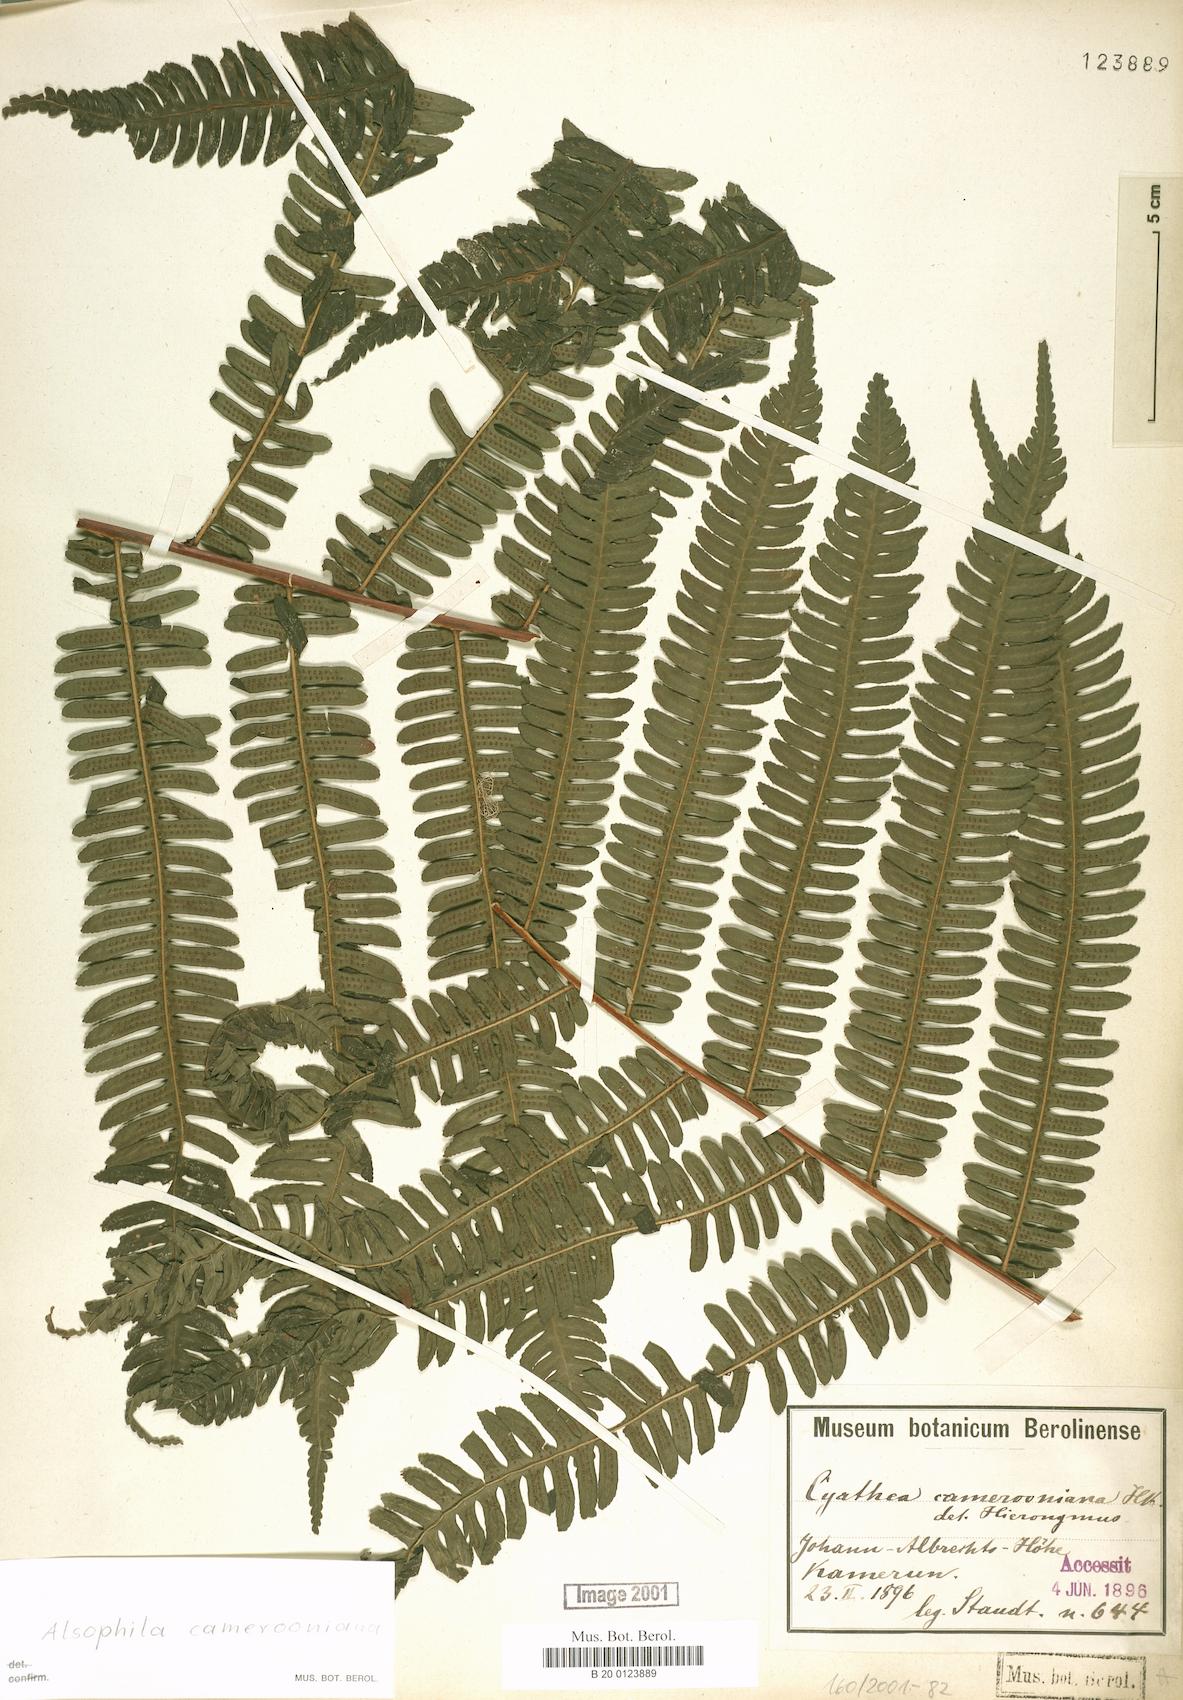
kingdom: Plantae
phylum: Tracheophyta
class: Polypodiopsida
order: Cyatheales
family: Cyatheaceae
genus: Alsophila
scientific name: Alsophila camerooniana
